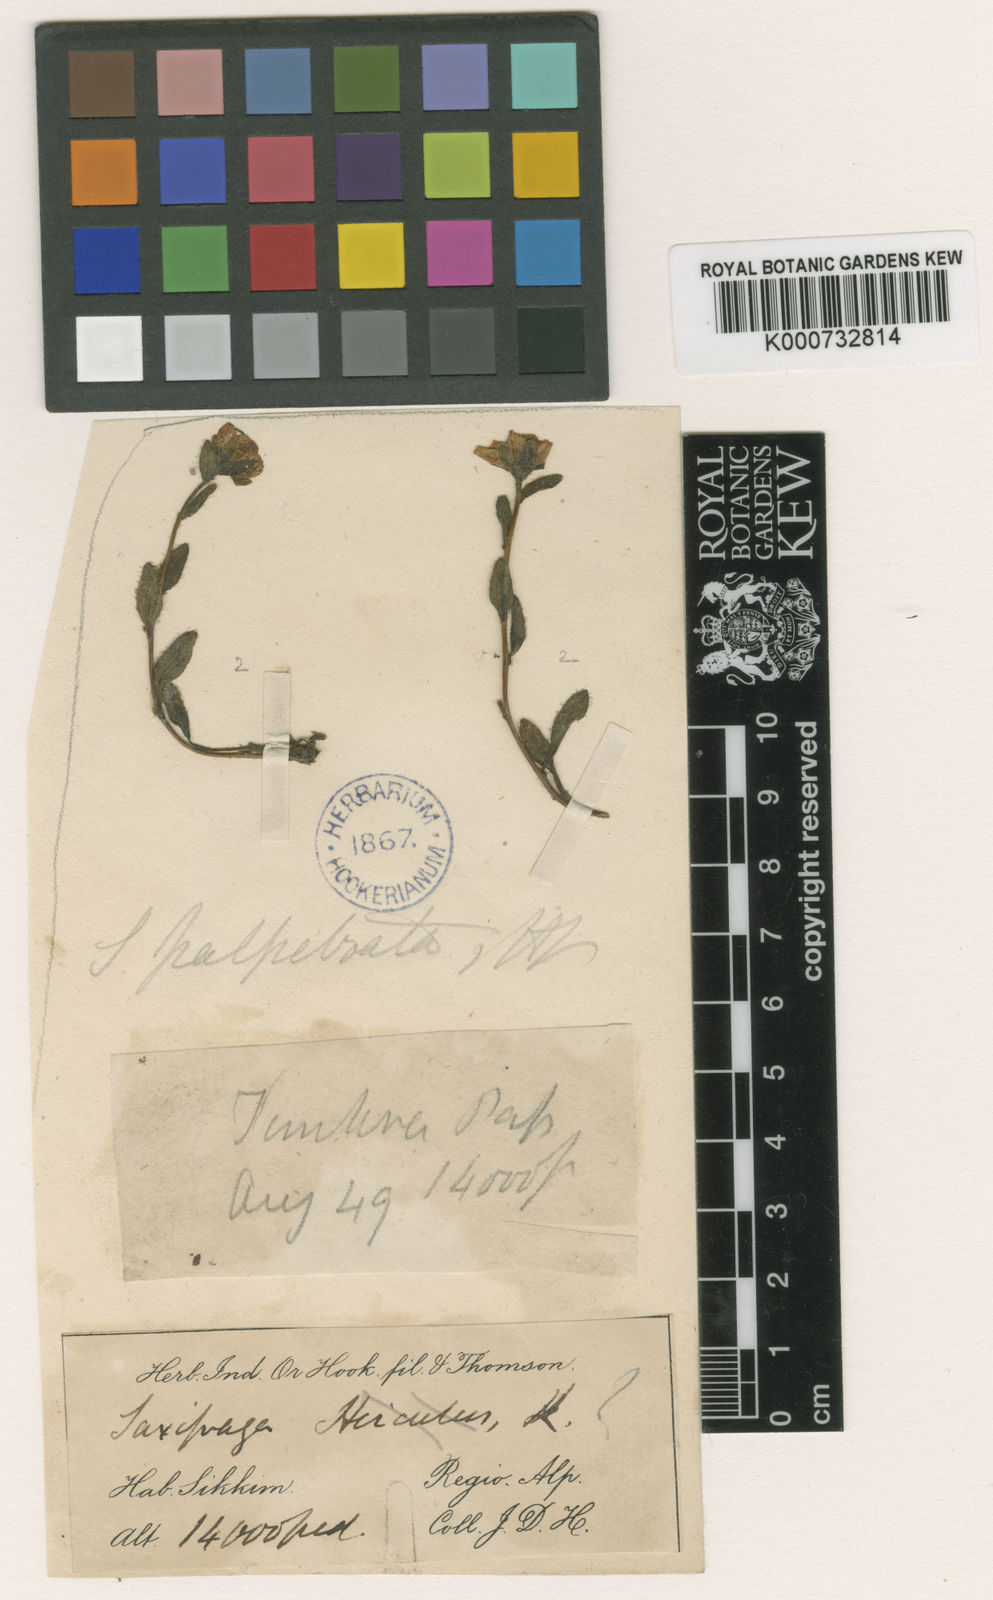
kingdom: Plantae
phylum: Tracheophyta
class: Magnoliopsida
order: Saxifragales
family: Saxifragaceae
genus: Saxifraga
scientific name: Saxifraga palpebrata
